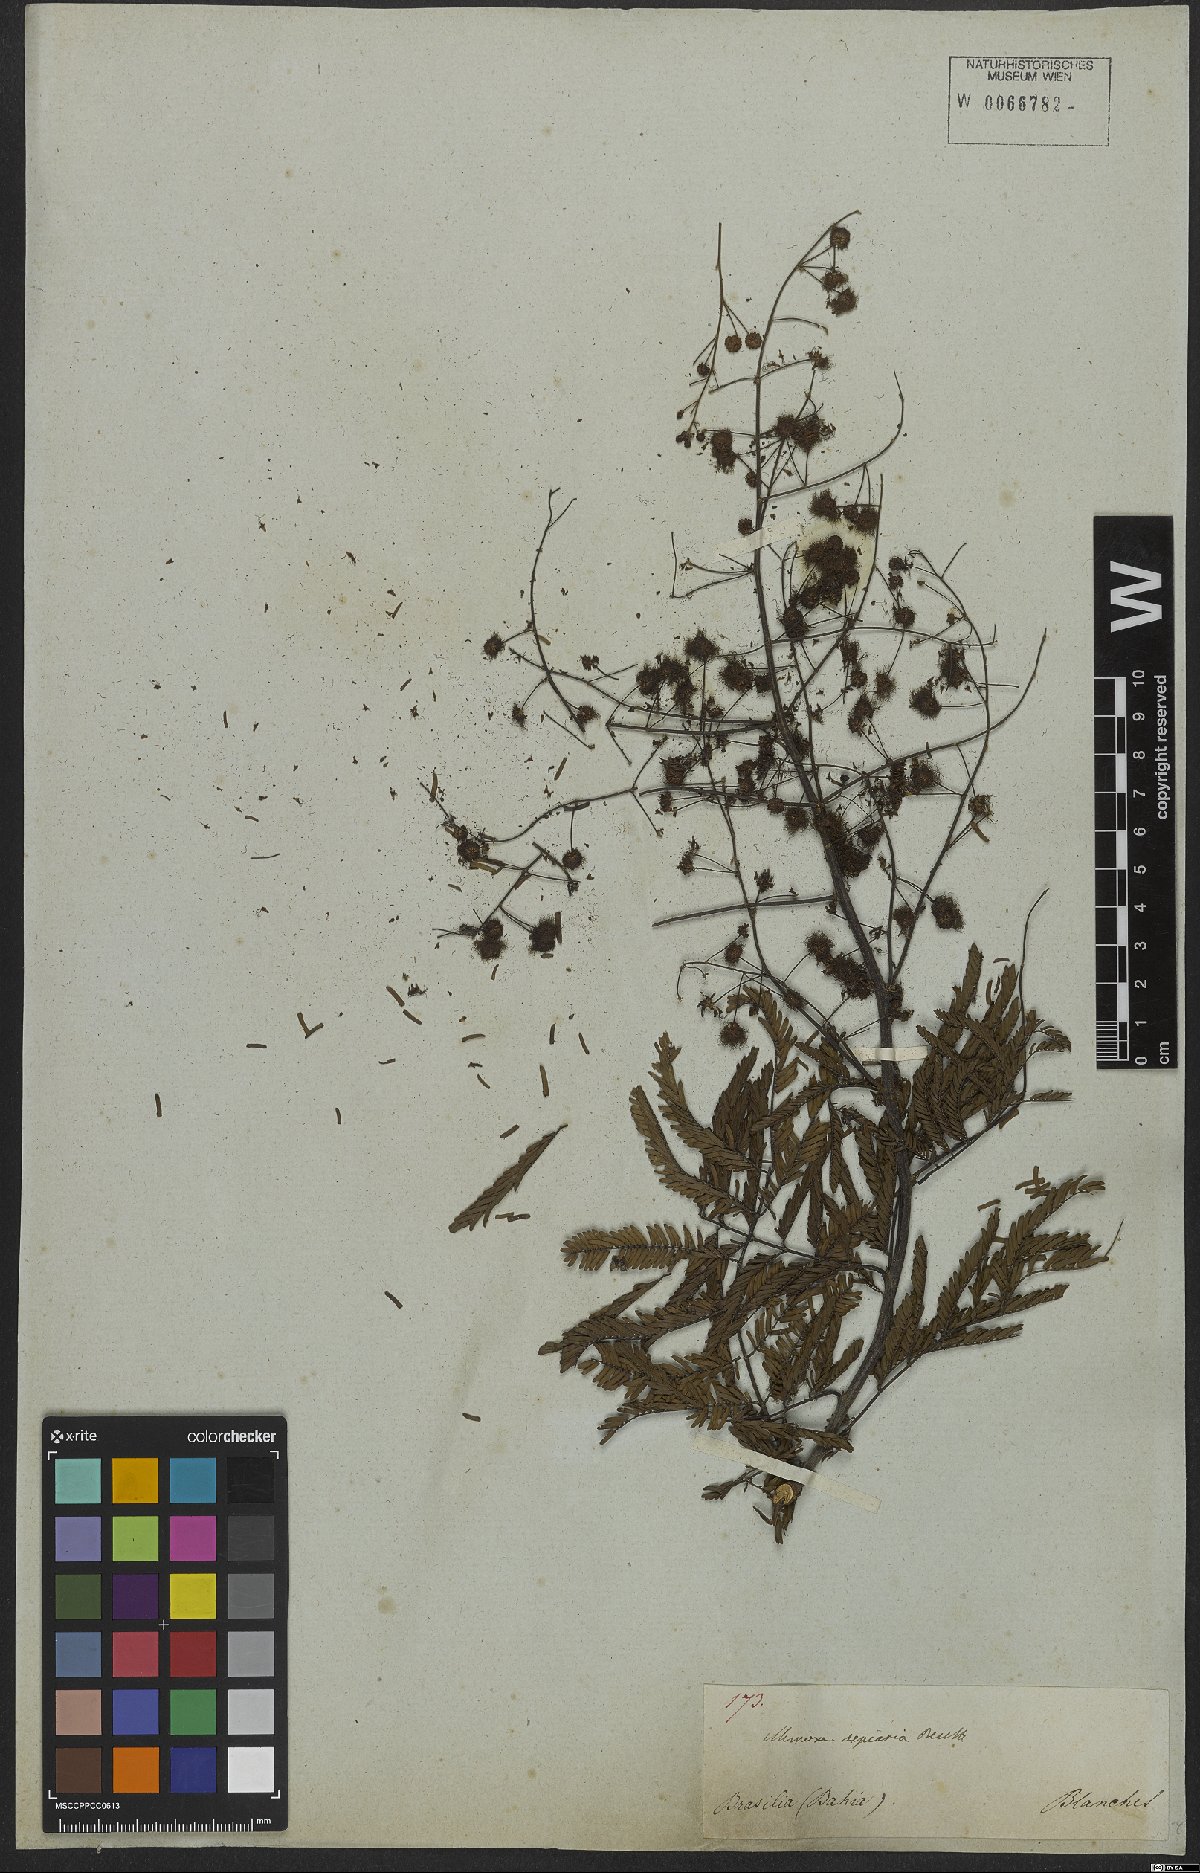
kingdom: Plantae
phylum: Tracheophyta
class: Magnoliopsida
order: Fabales
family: Fabaceae
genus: Mimosa
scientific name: Mimosa bimucronata
